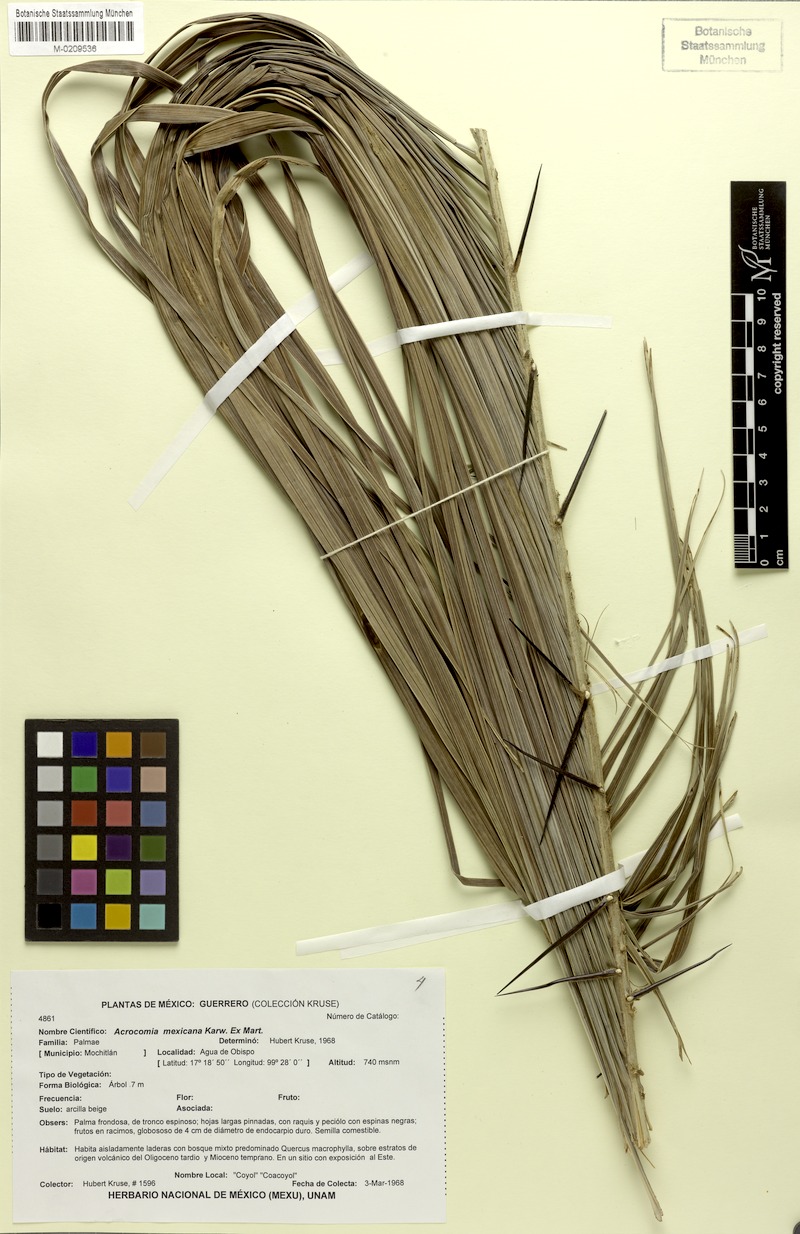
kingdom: Plantae
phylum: Tracheophyta
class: Liliopsida
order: Arecales
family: Arecaceae
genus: Acrocomia
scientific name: Acrocomia aculeata
